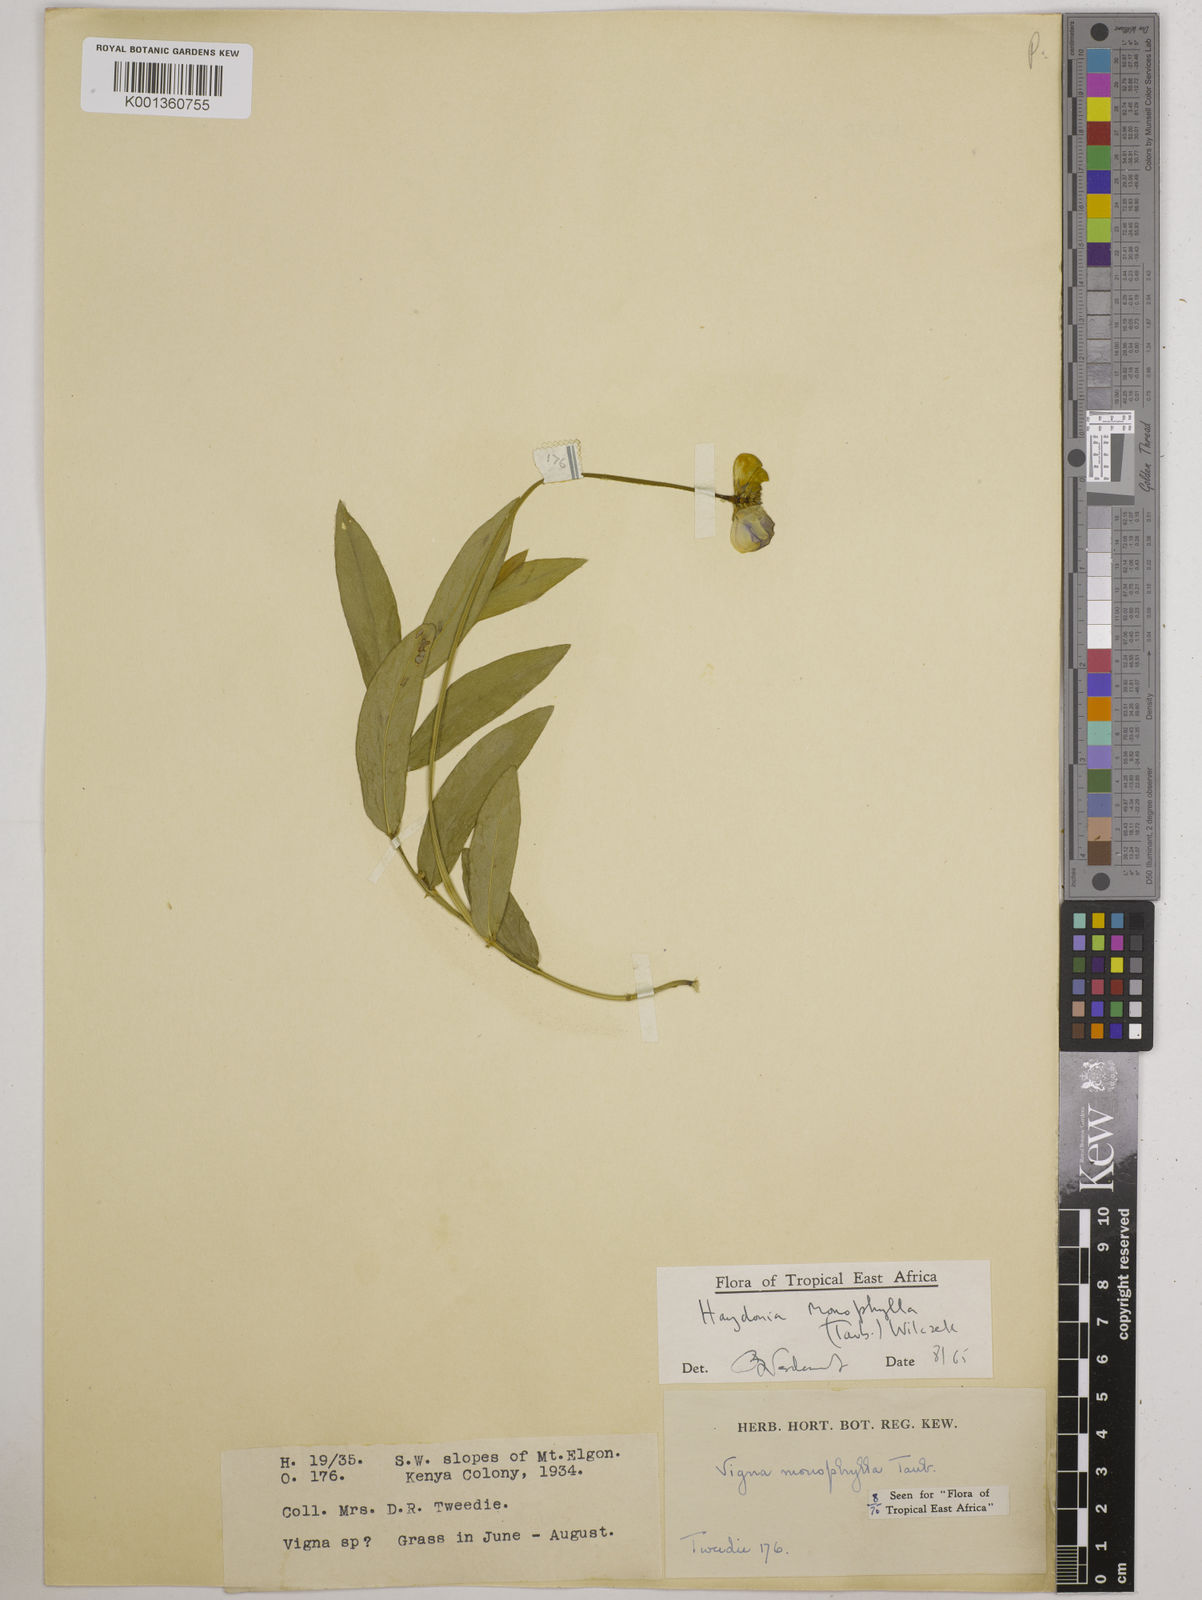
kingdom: Plantae
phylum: Tracheophyta
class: Magnoliopsida
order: Fabales
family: Fabaceae
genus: Vigna
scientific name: Vigna monophylla
